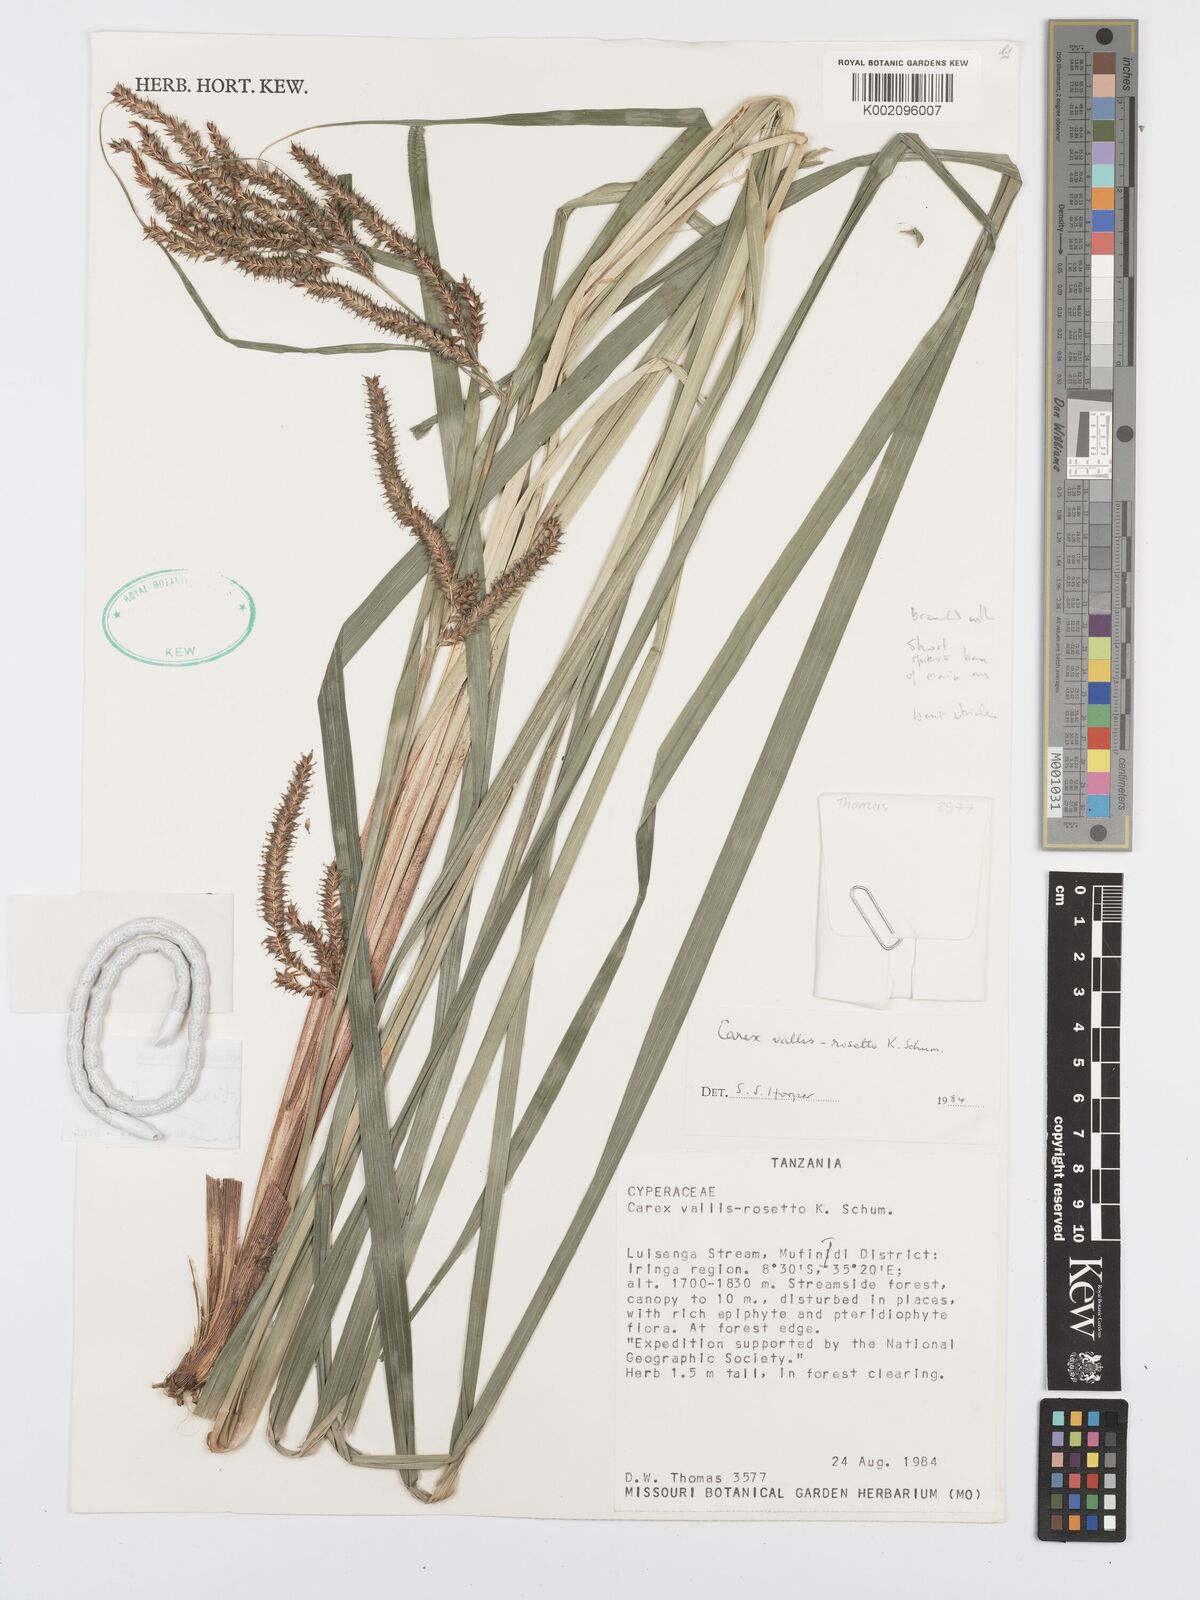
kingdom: Plantae
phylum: Tracheophyta
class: Liliopsida
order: Poales
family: Cyperaceae
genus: Carex
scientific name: Carex vallis-rosetto
